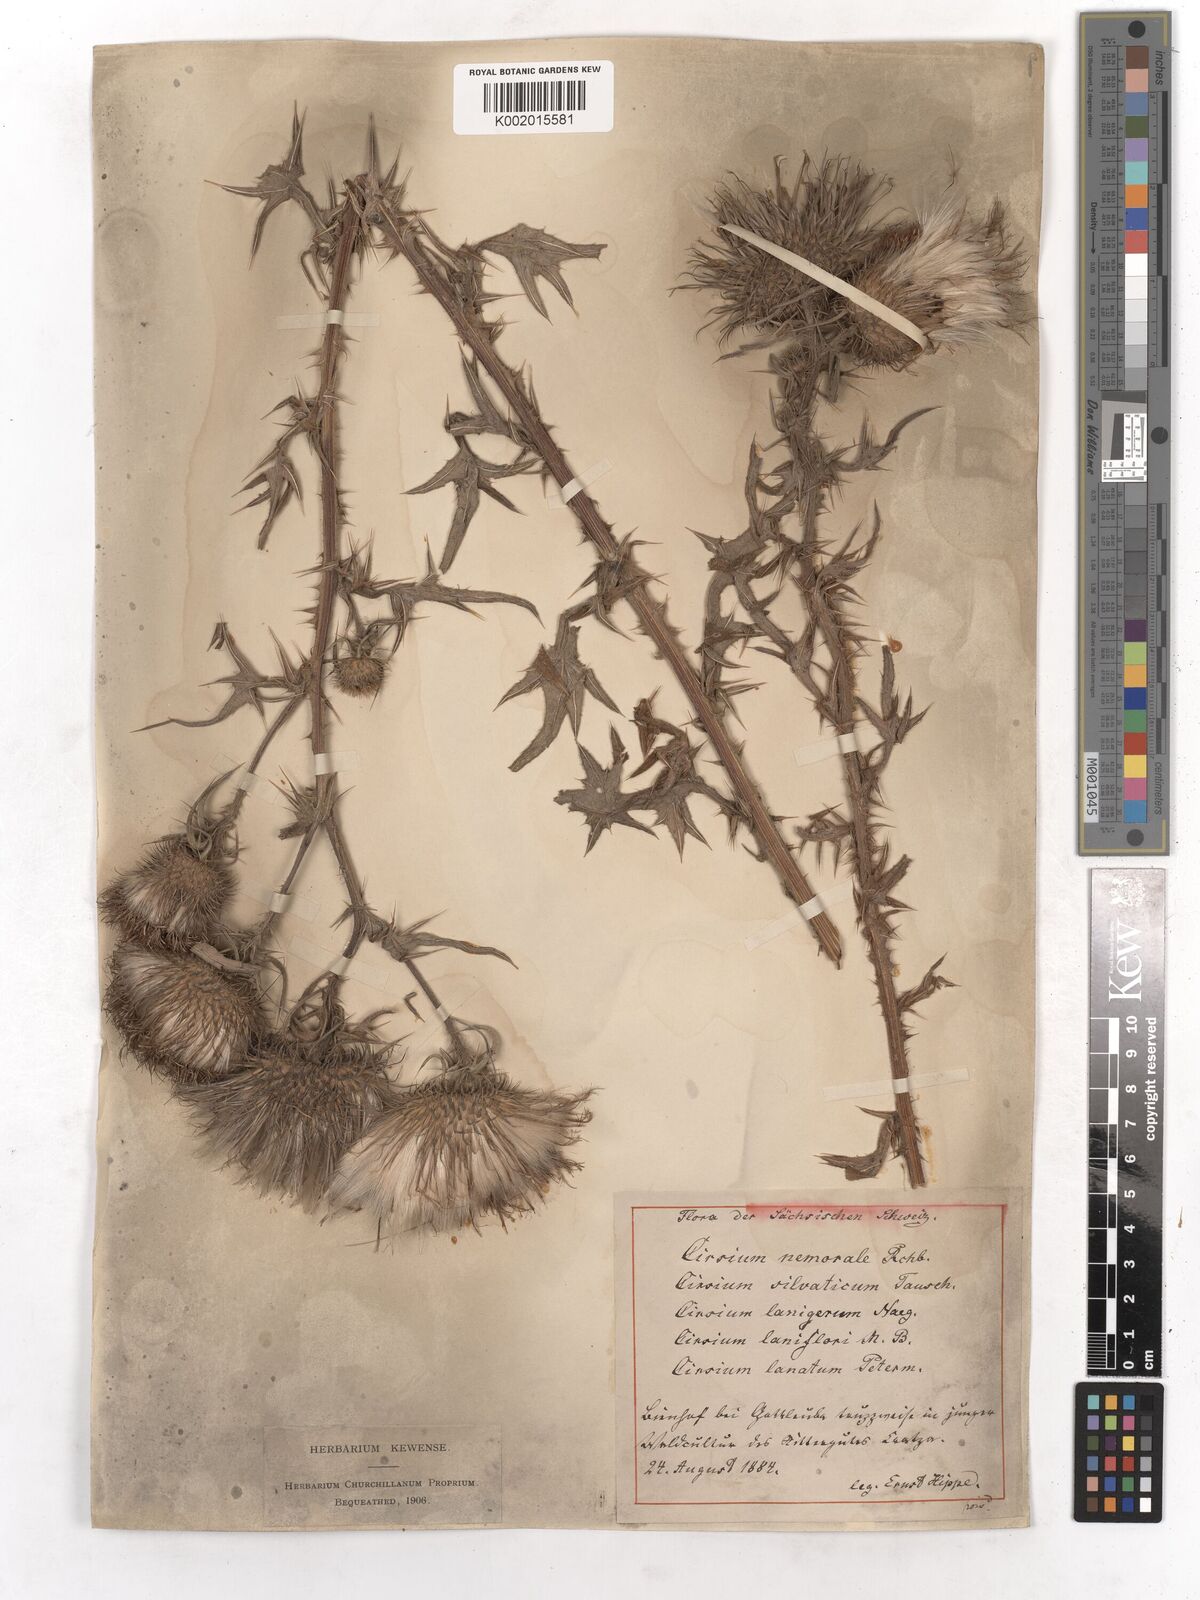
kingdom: Plantae
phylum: Tracheophyta
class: Magnoliopsida
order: Asterales
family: Asteraceae
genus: Cirsium
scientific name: Cirsium vulgare
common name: Bull thistle
